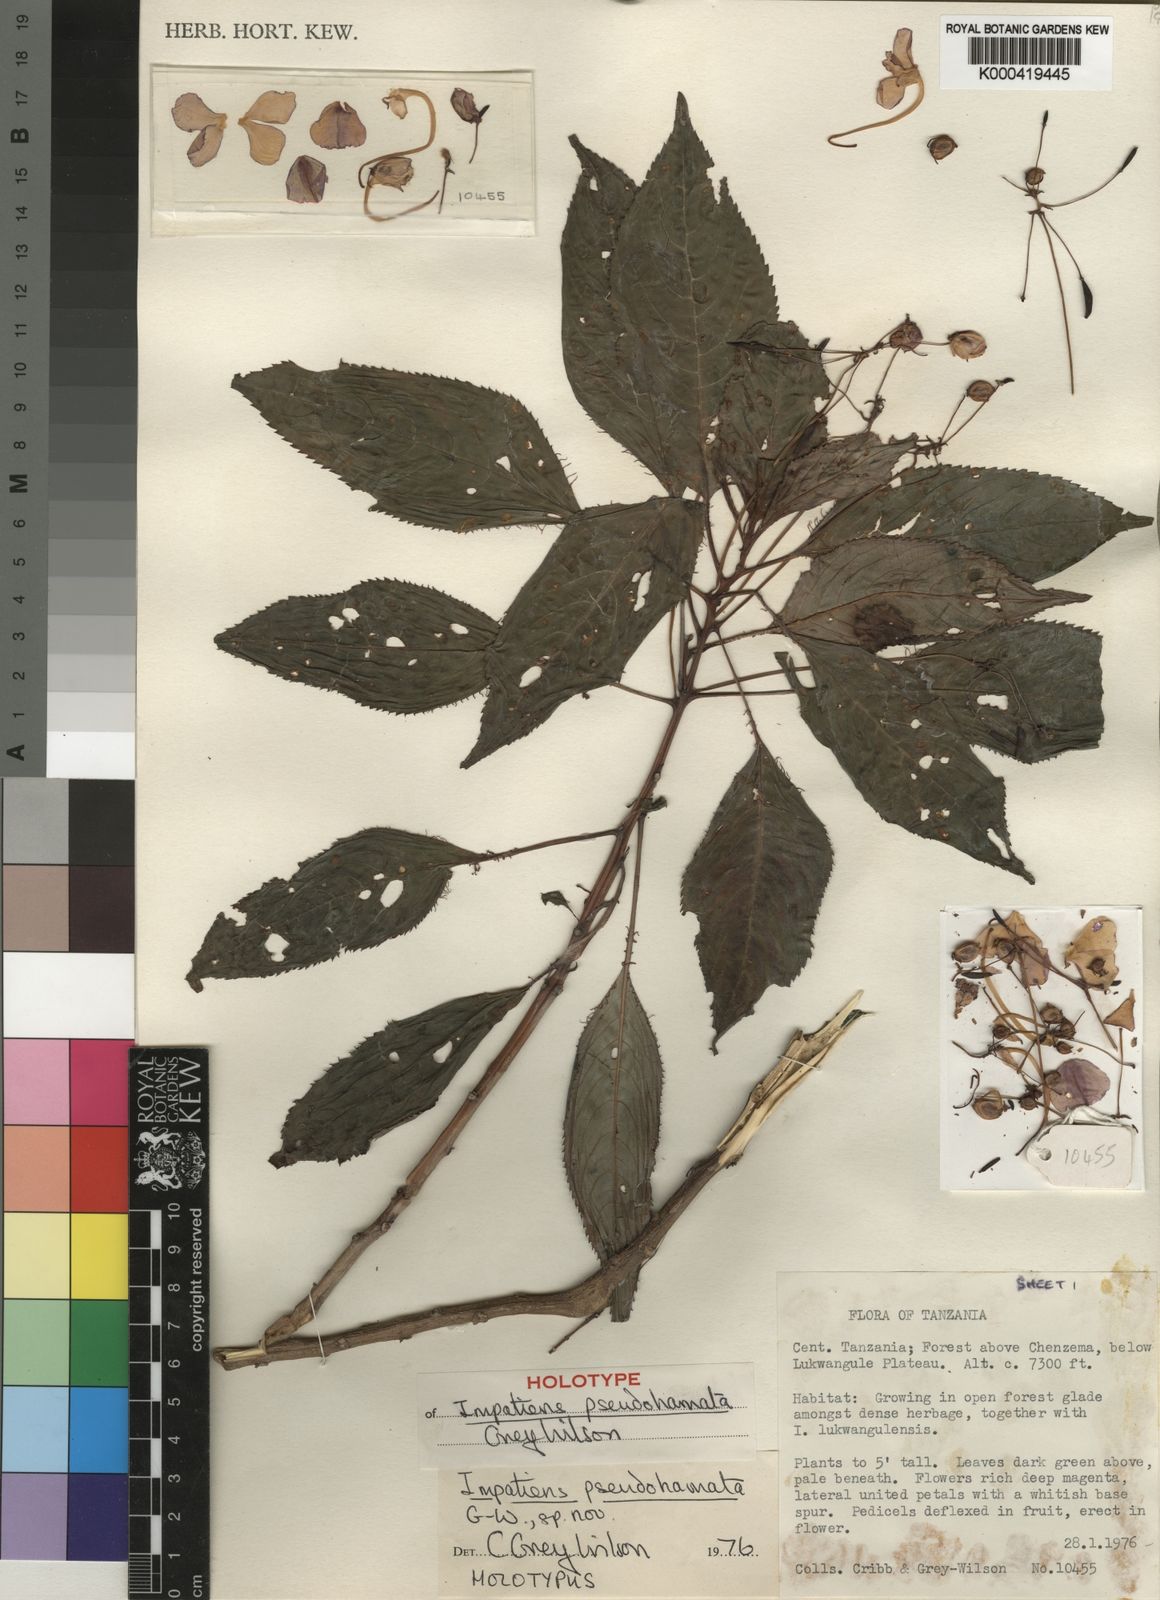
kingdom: Plantae
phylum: Tracheophyta
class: Magnoliopsida
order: Ericales
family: Balsaminaceae
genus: Impatiens
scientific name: Impatiens pseudohamata
